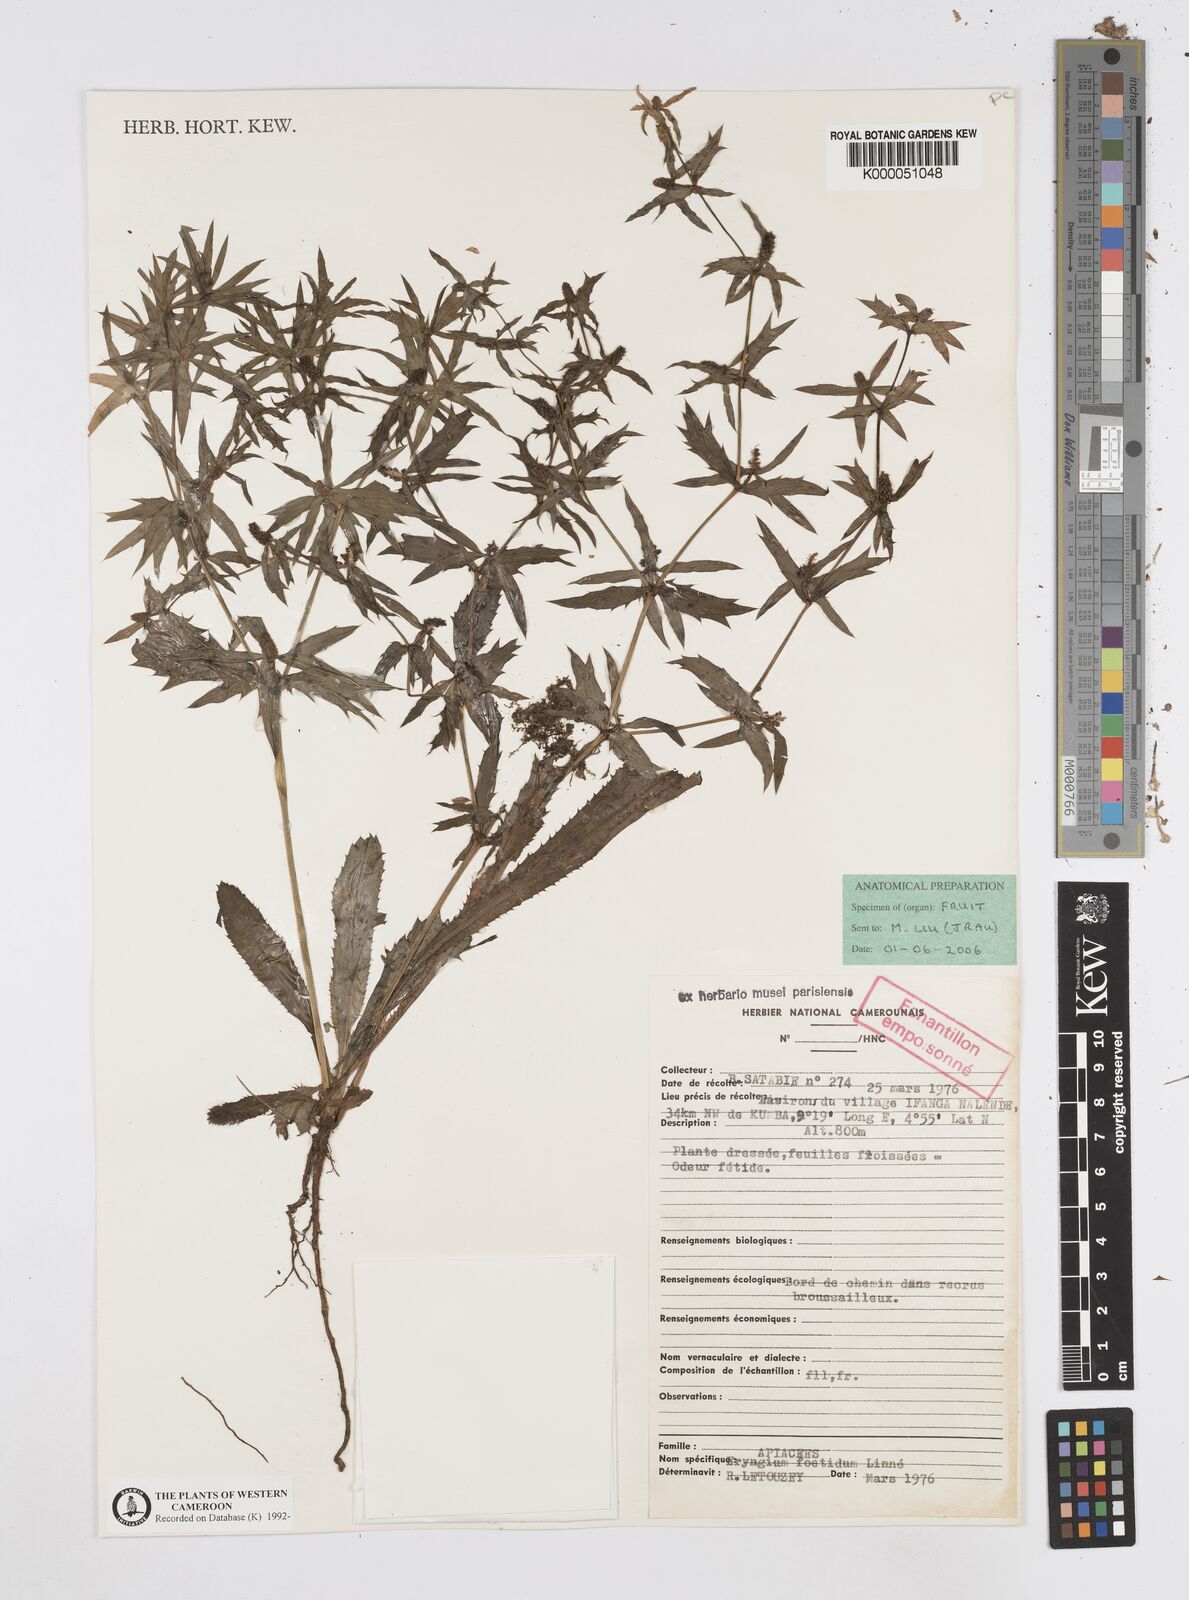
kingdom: Plantae
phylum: Tracheophyta
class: Magnoliopsida
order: Apiales
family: Apiaceae
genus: Eryngium
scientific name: Eryngium foetidum
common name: Fitweed
